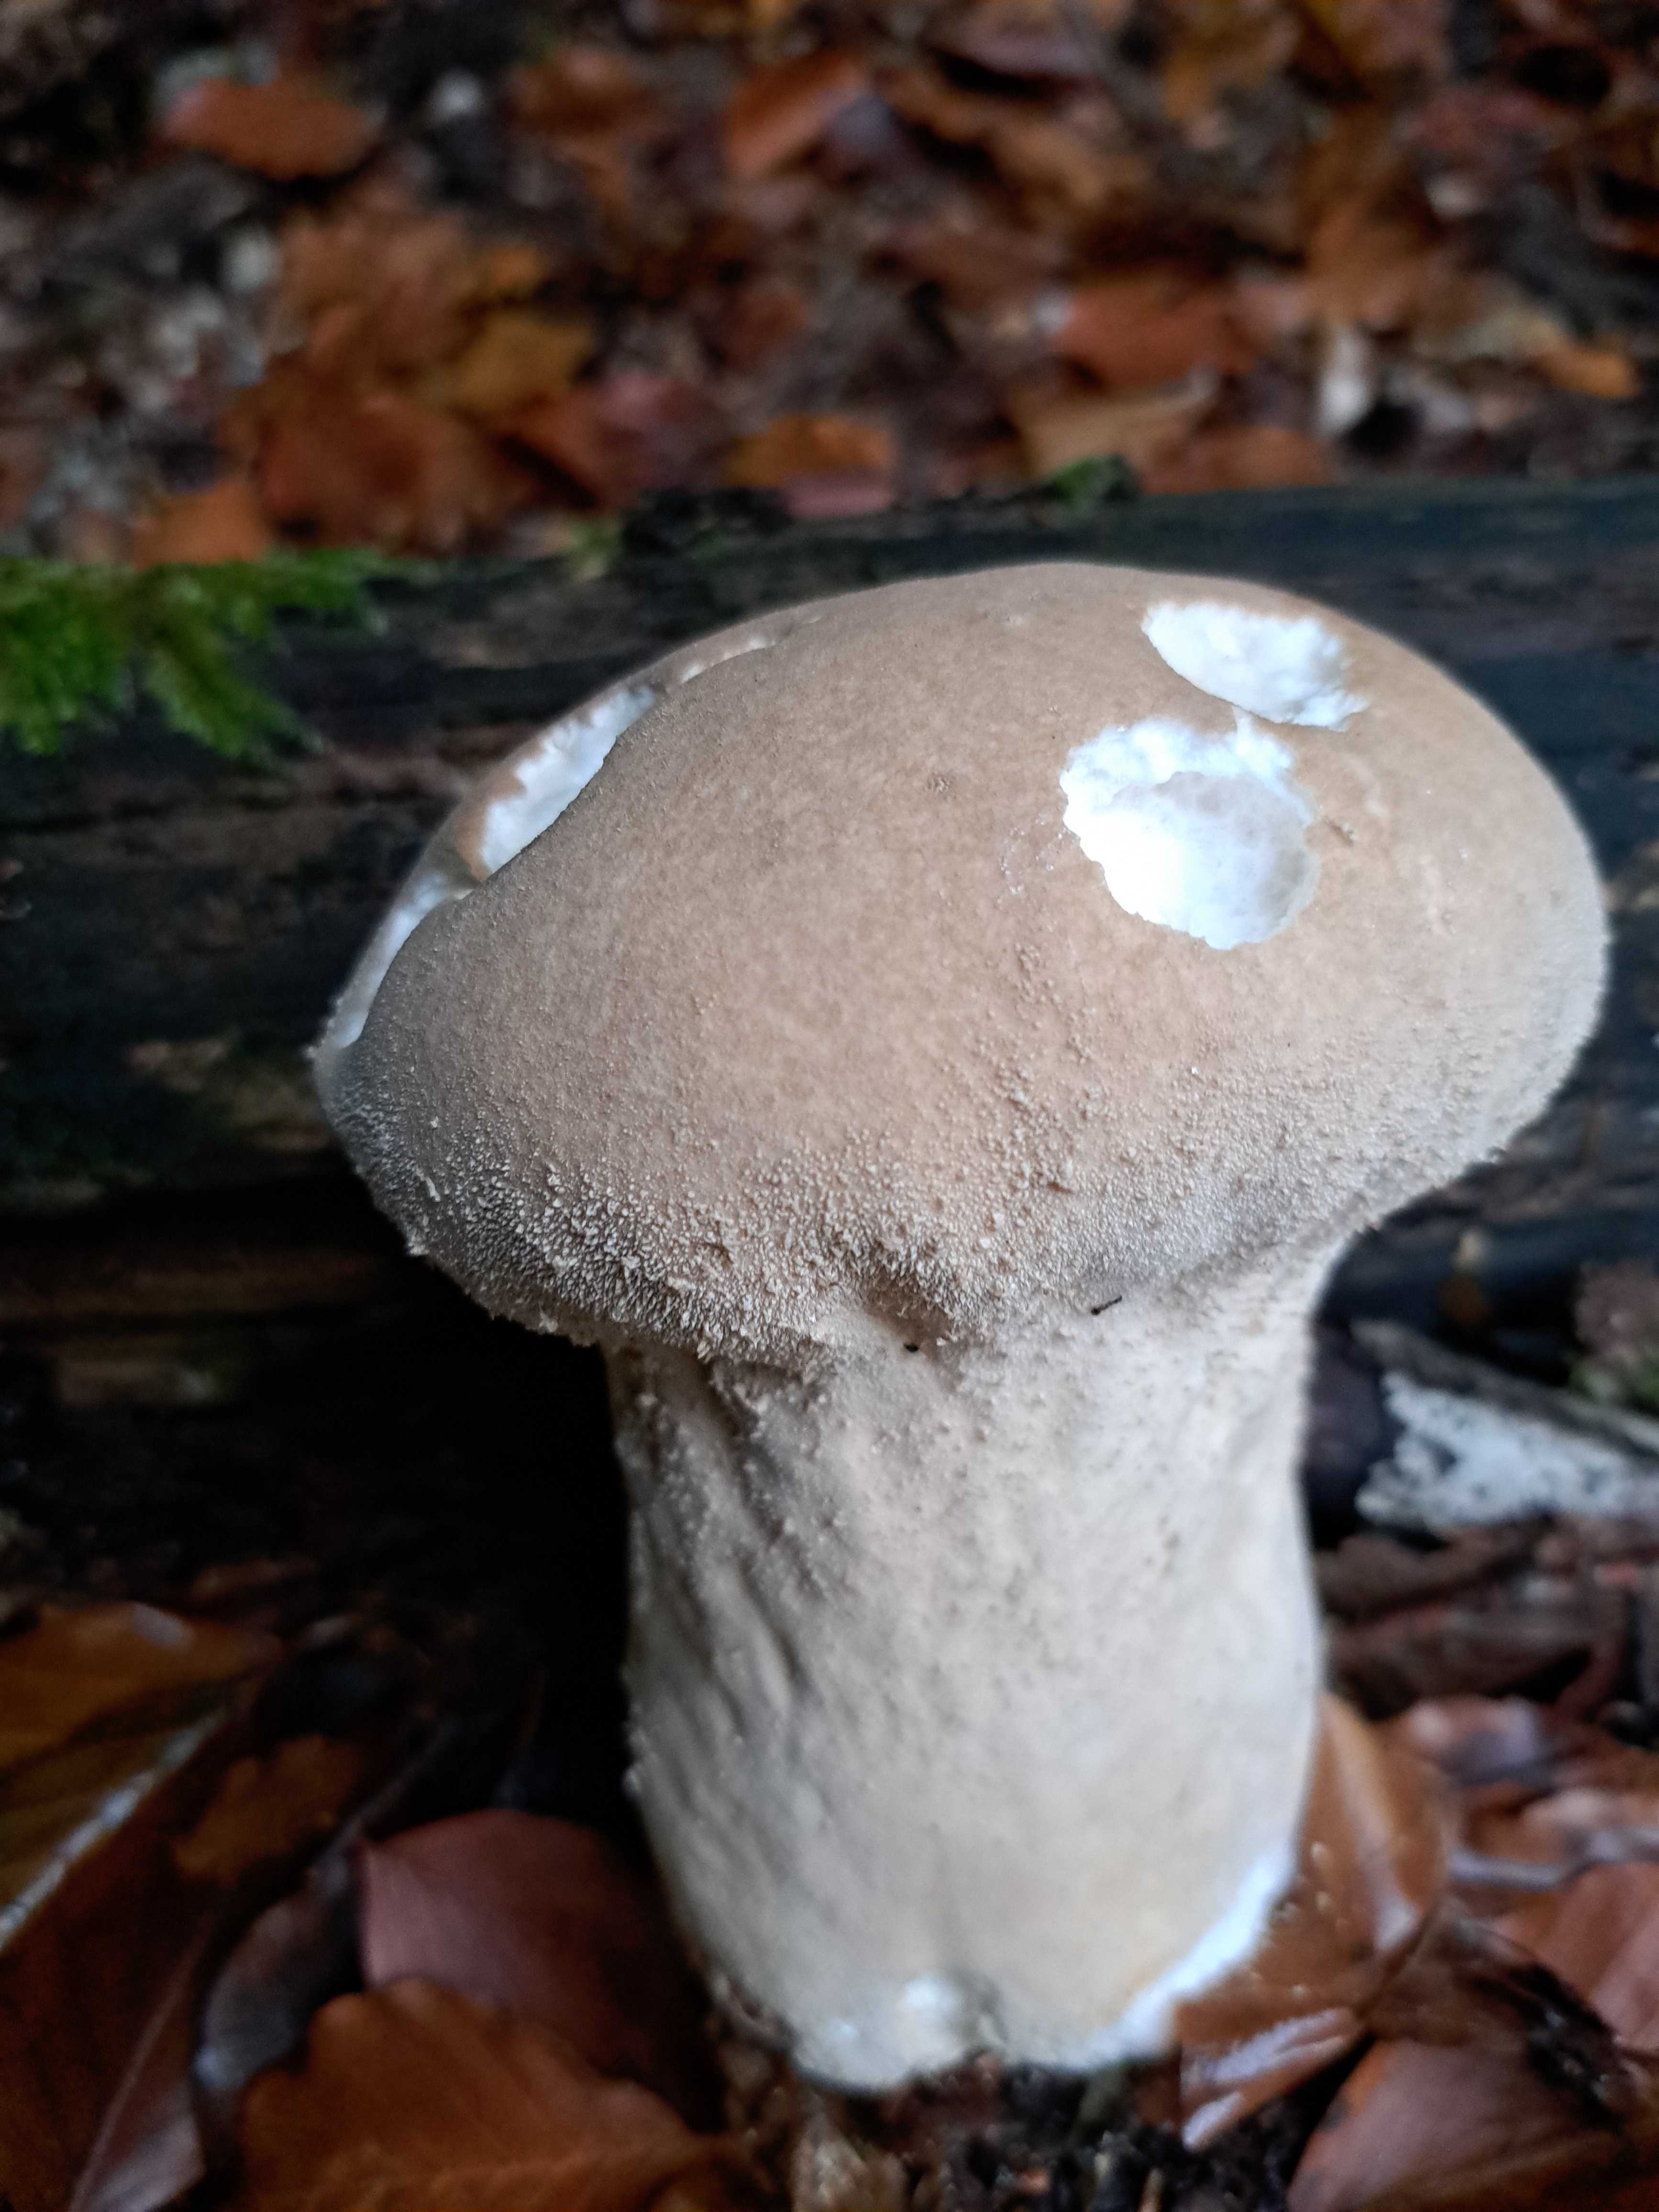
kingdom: Fungi
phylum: Basidiomycota
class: Agaricomycetes
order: Agaricales
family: Lycoperdaceae
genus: Lycoperdon
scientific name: Lycoperdon excipuliforme
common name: højstokket støvbold
